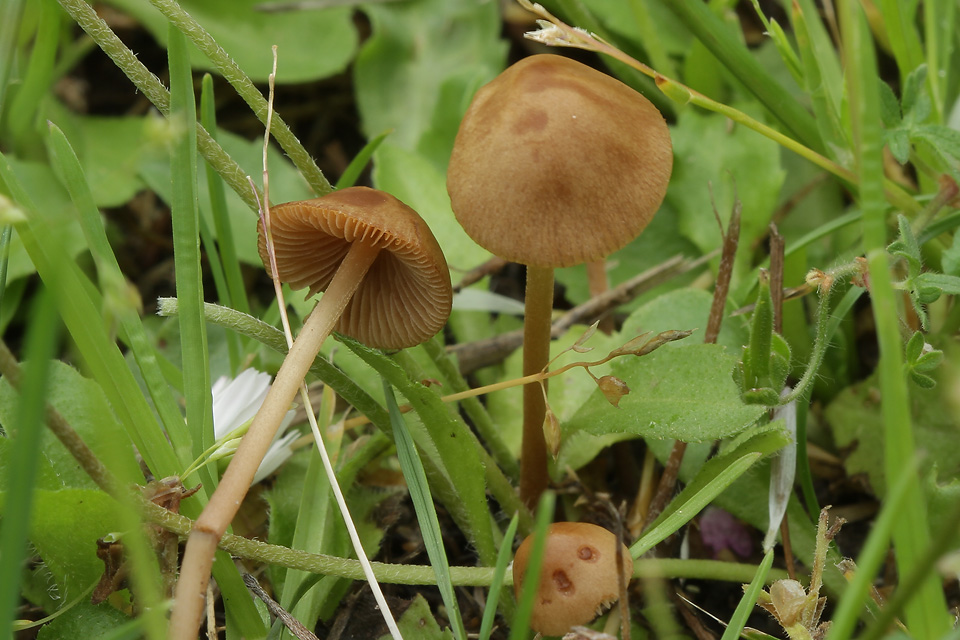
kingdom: Fungi
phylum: Basidiomycota
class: Agaricomycetes
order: Agaricales
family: Bolbitiaceae
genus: Conocybe
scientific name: Conocybe semiglobata
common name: halvkugleformet keglehat
